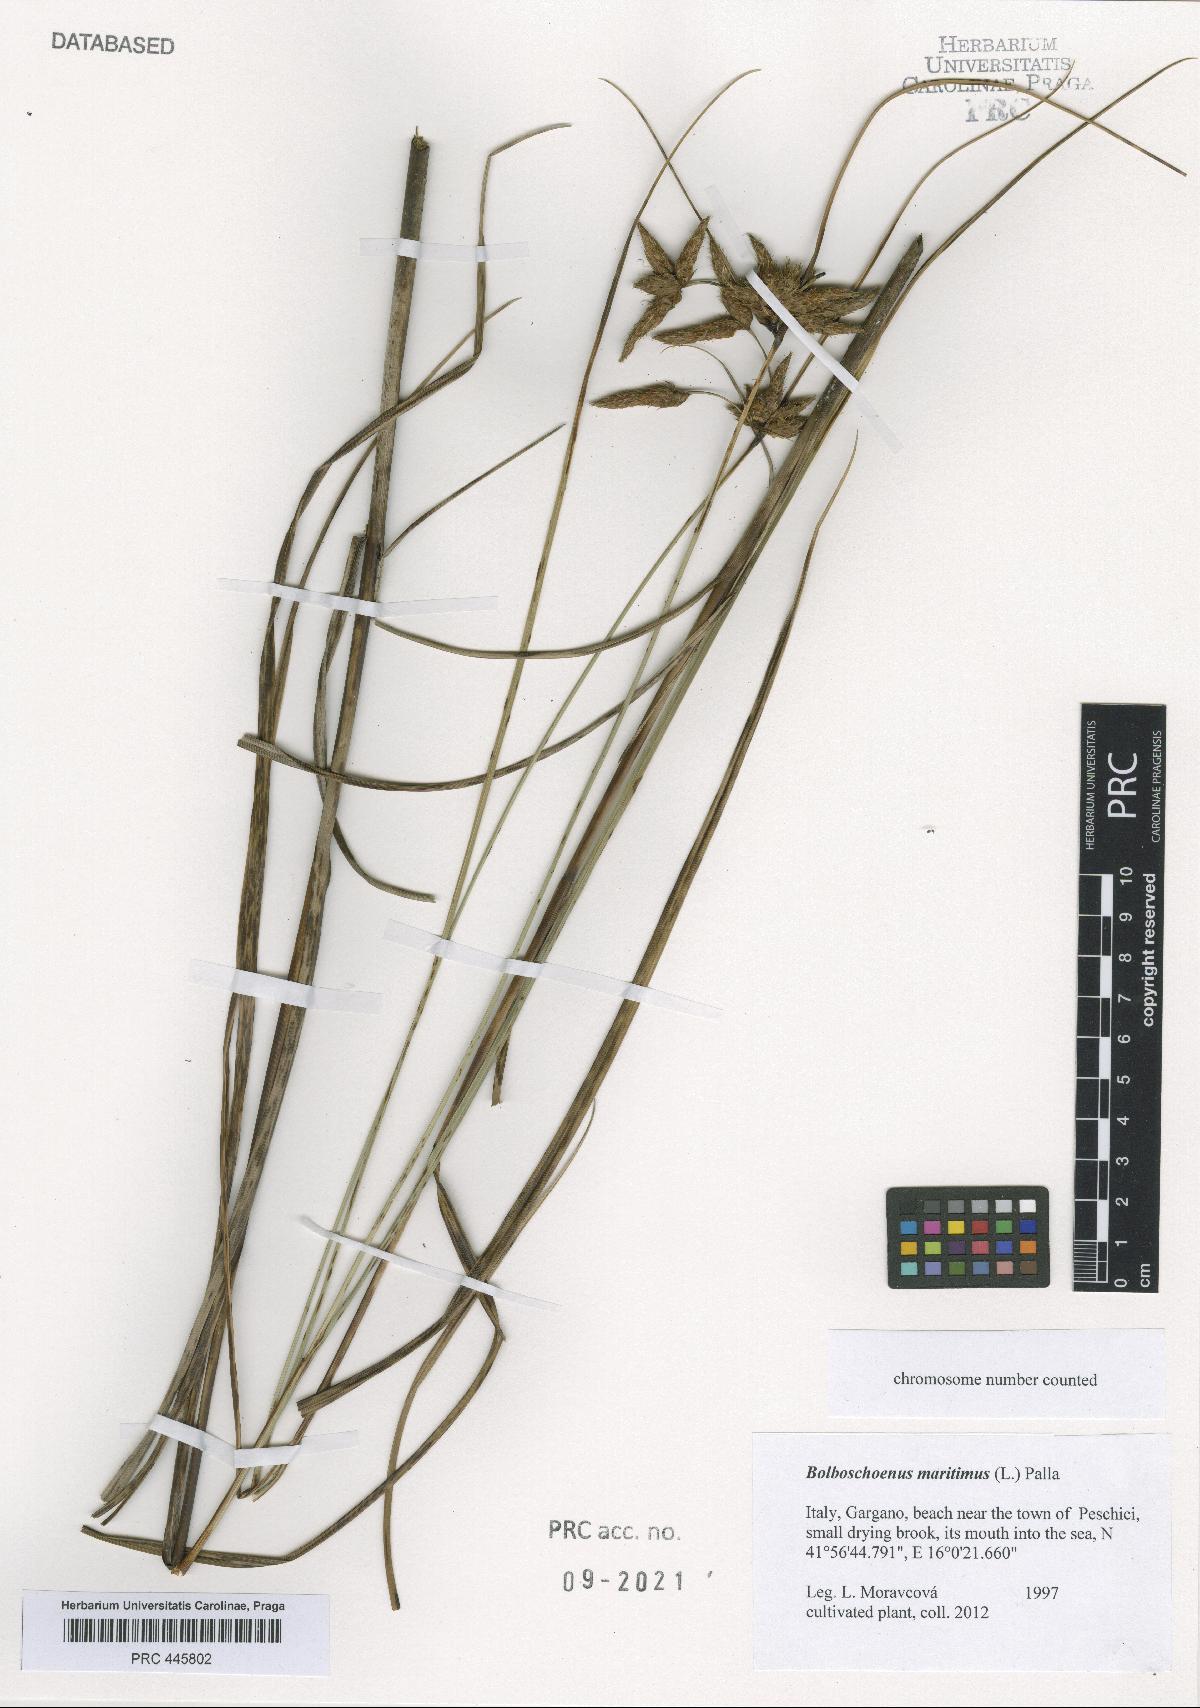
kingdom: Plantae
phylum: Tracheophyta
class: Liliopsida
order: Poales
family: Cyperaceae
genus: Bolboschoenus
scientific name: Bolboschoenus maritimus
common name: Sea club-rush
